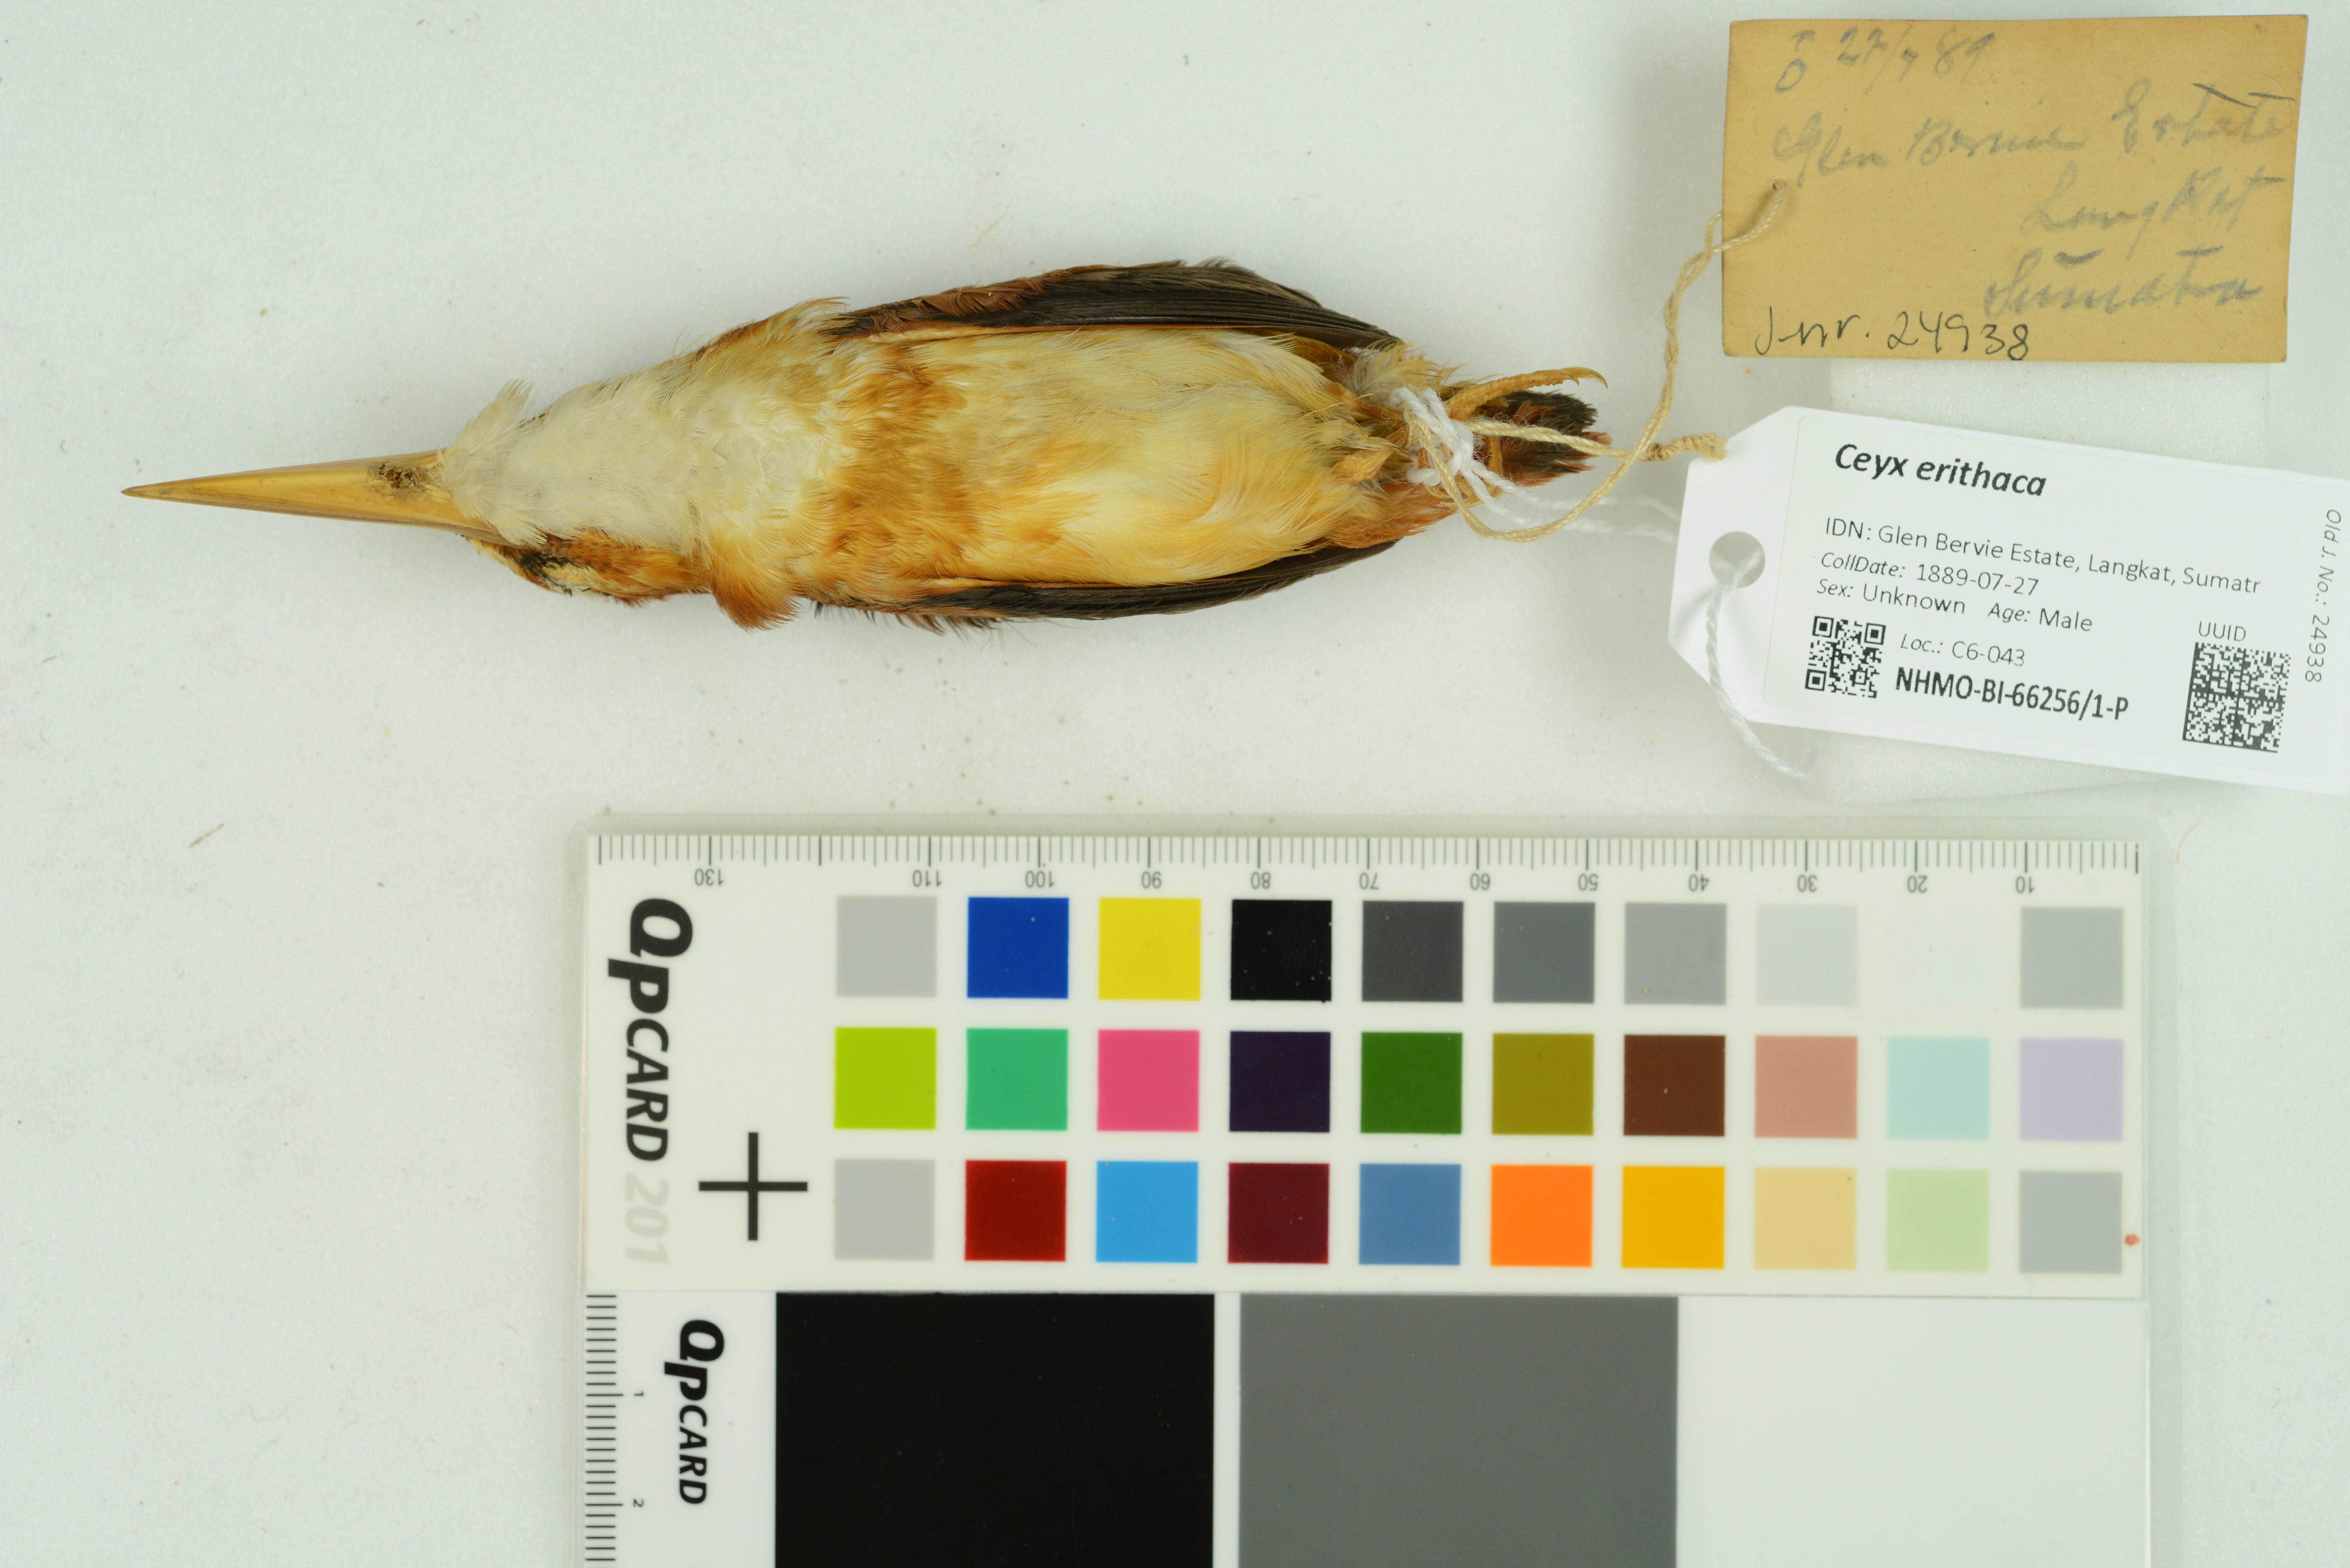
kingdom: Animalia
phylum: Chordata
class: Aves
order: Coraciiformes
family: Alcedinidae
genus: Ceyx
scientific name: Ceyx erithaca
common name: Oriental dwarf kingfisher
